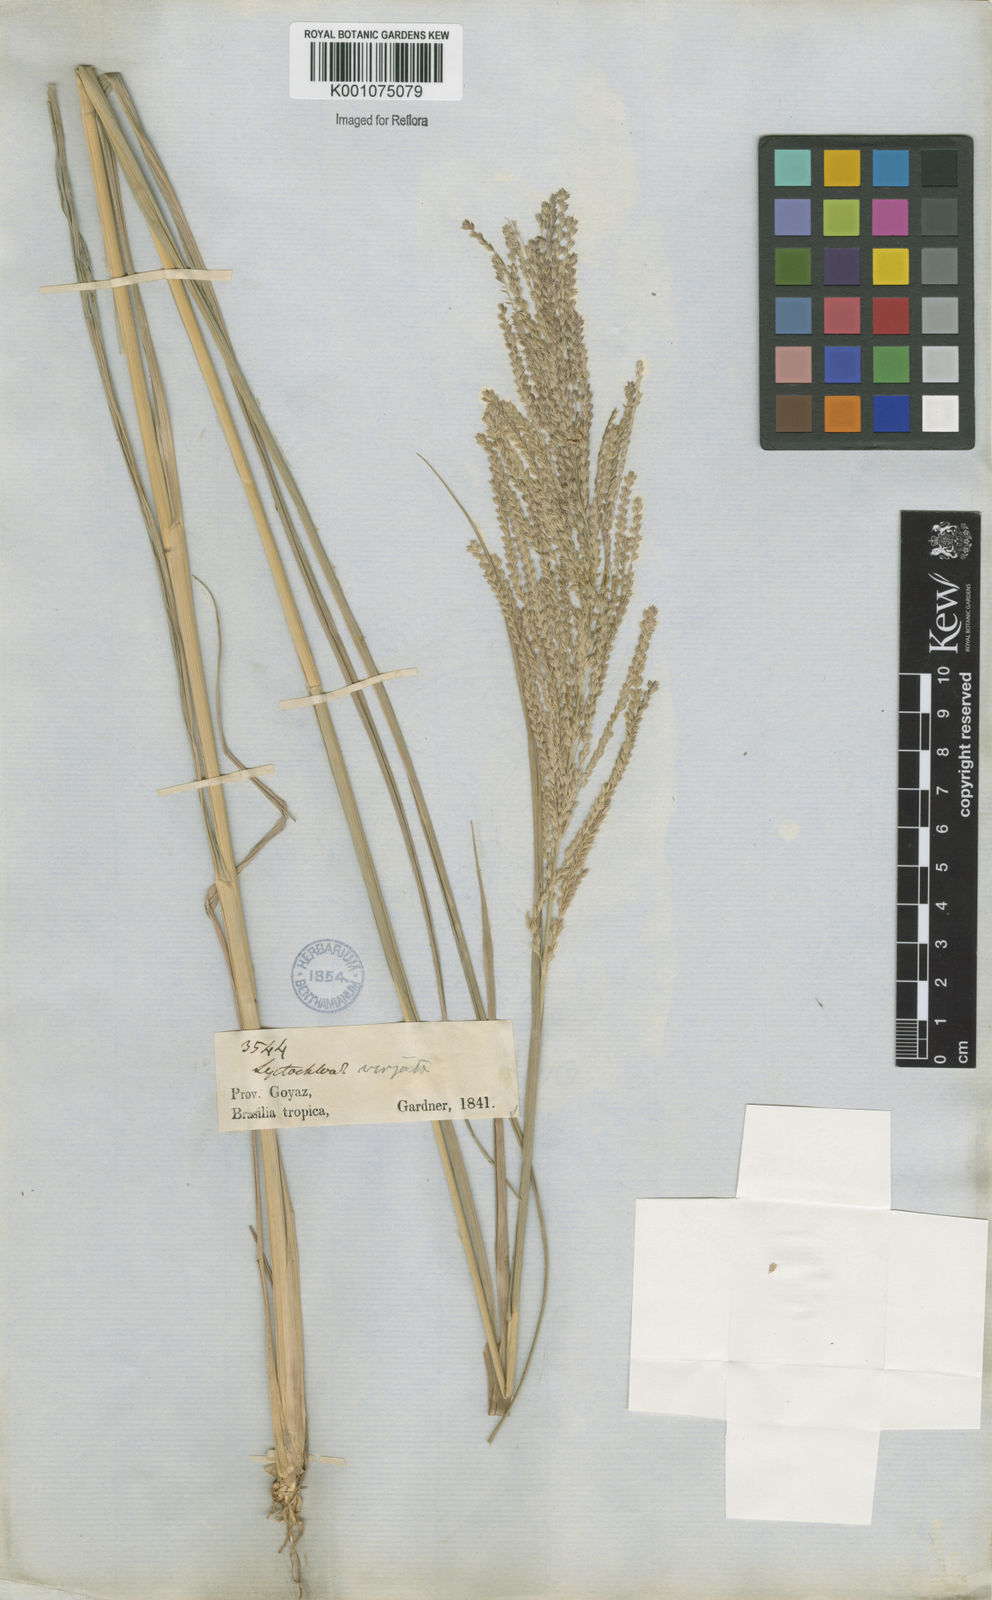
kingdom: Plantae
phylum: Tracheophyta
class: Liliopsida
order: Poales
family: Poaceae
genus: Leptochloa
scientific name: Leptochloa virgata
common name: Tropical sprangletop
